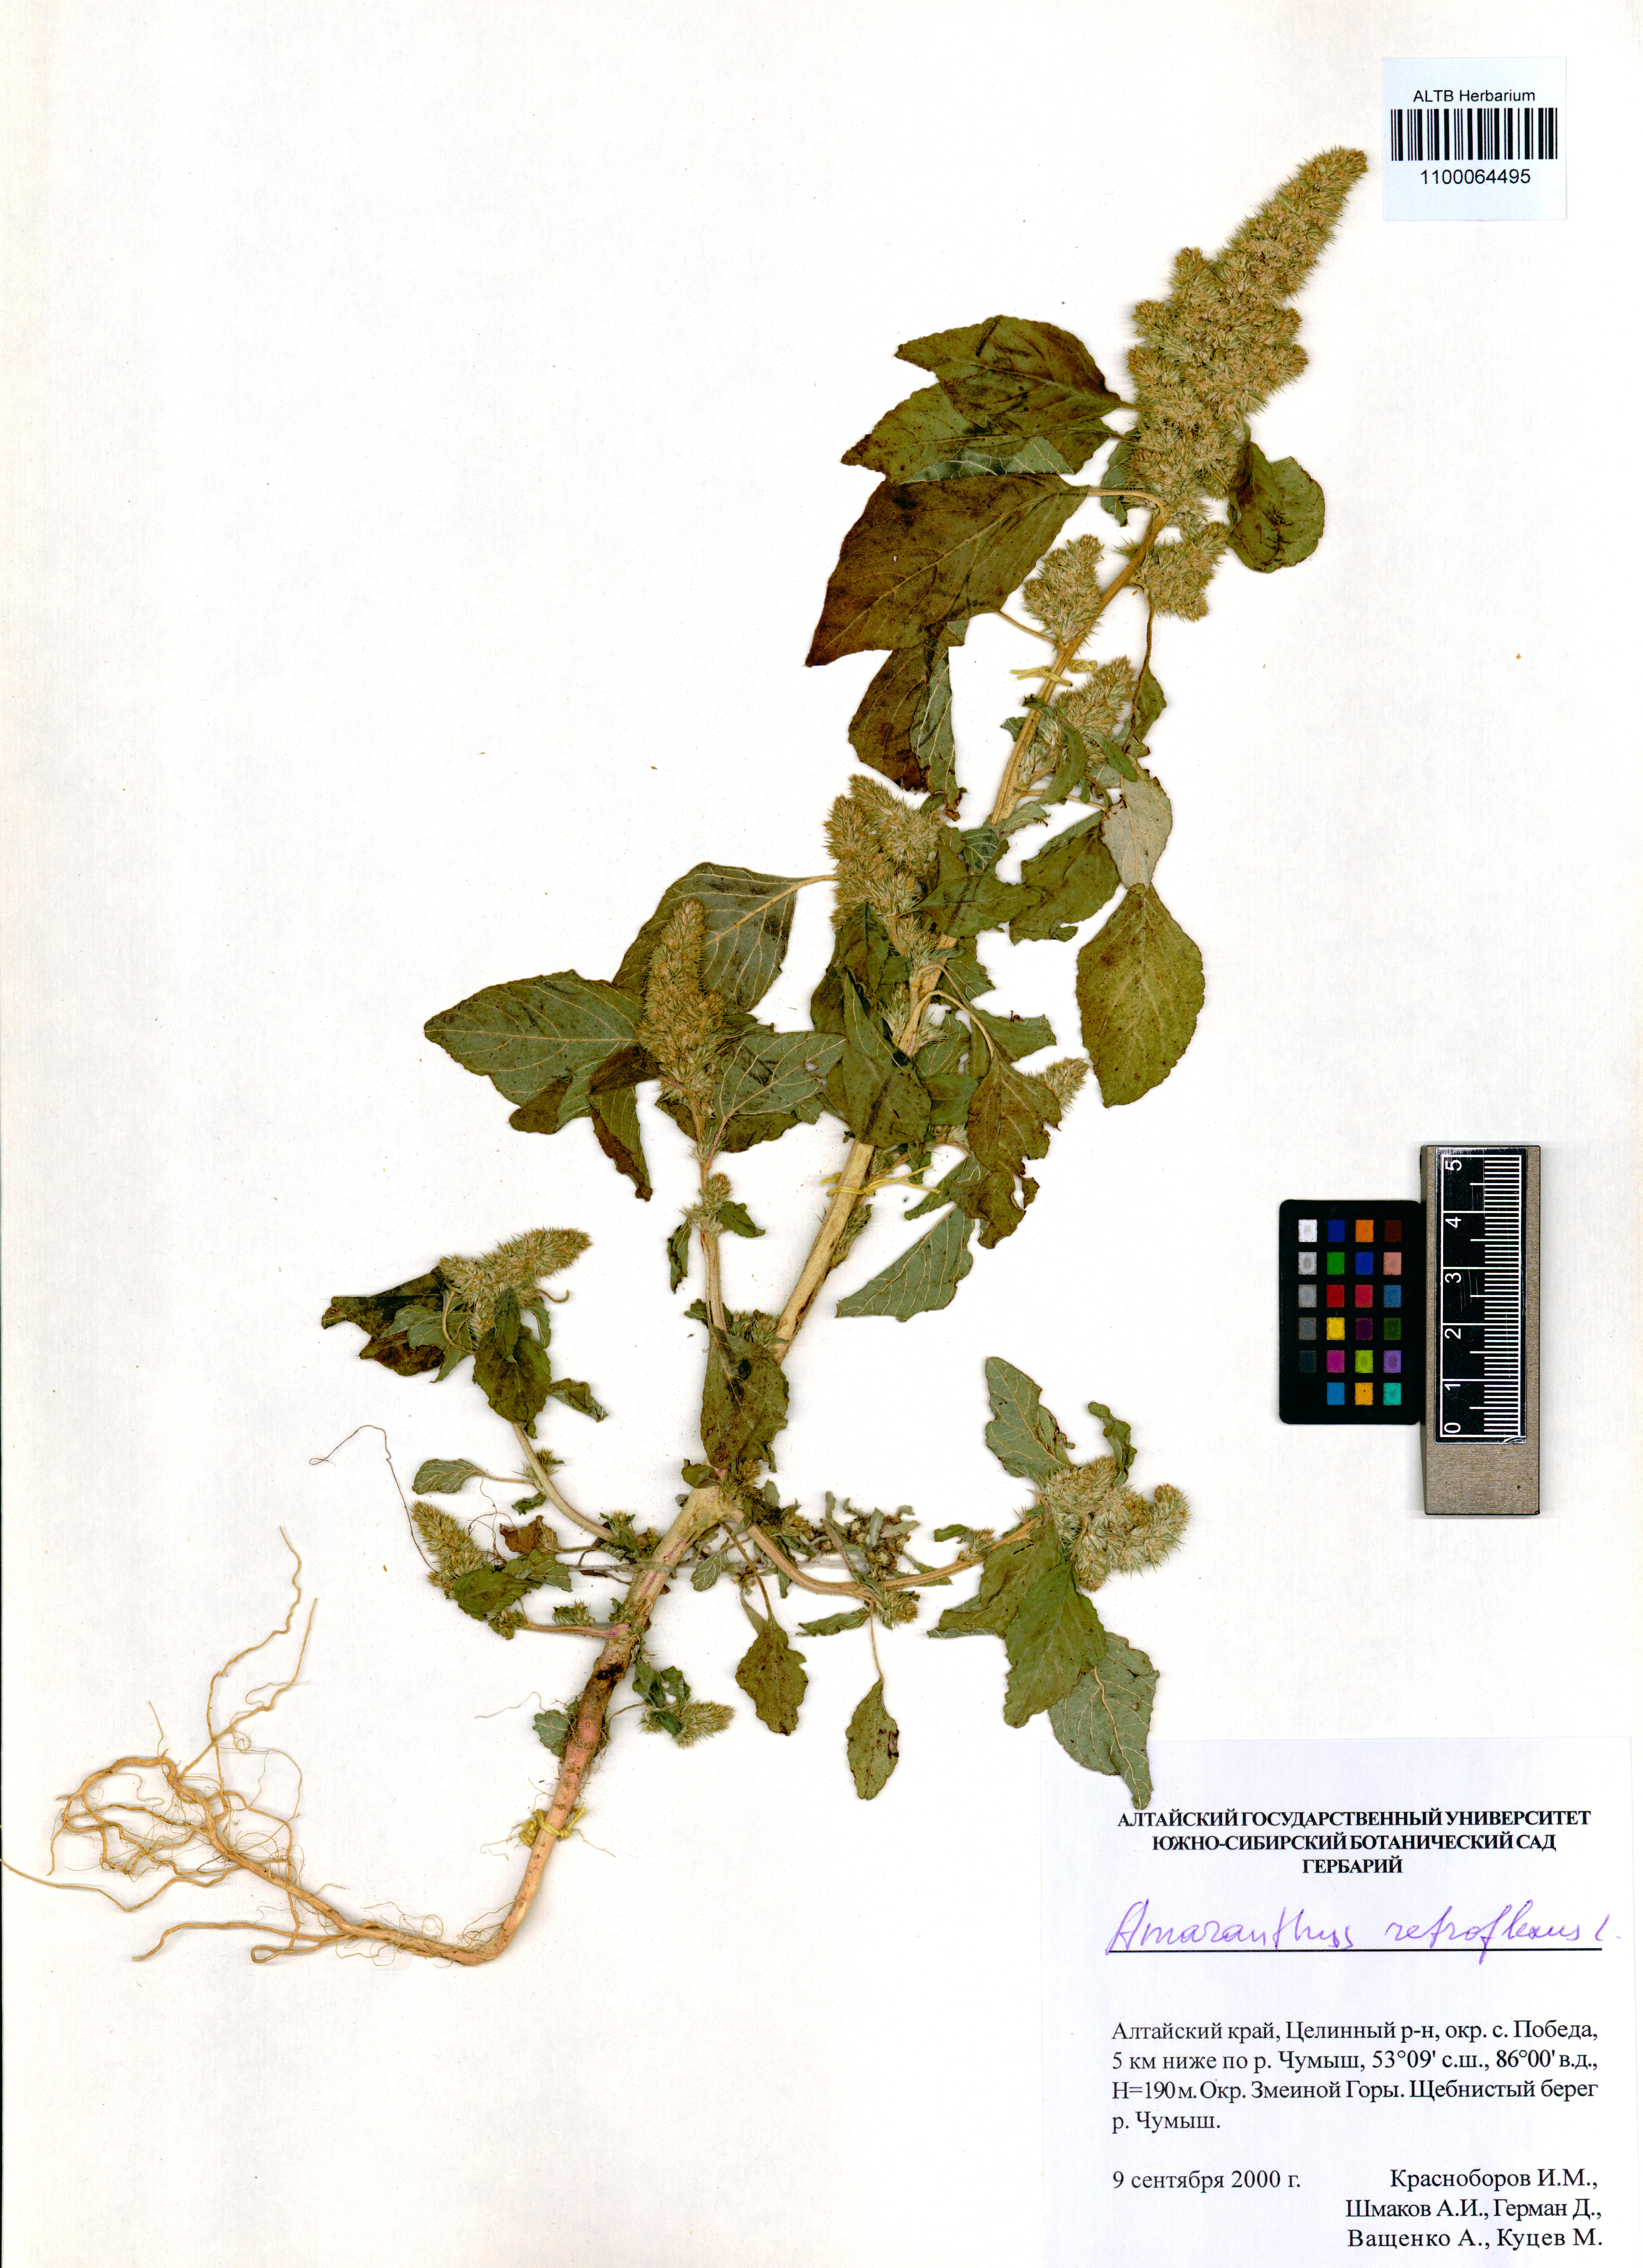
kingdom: Plantae
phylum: Tracheophyta
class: Magnoliopsida
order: Caryophyllales
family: Amaranthaceae
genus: Amaranthus
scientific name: Amaranthus retroflexus
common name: Redroot amaranth
